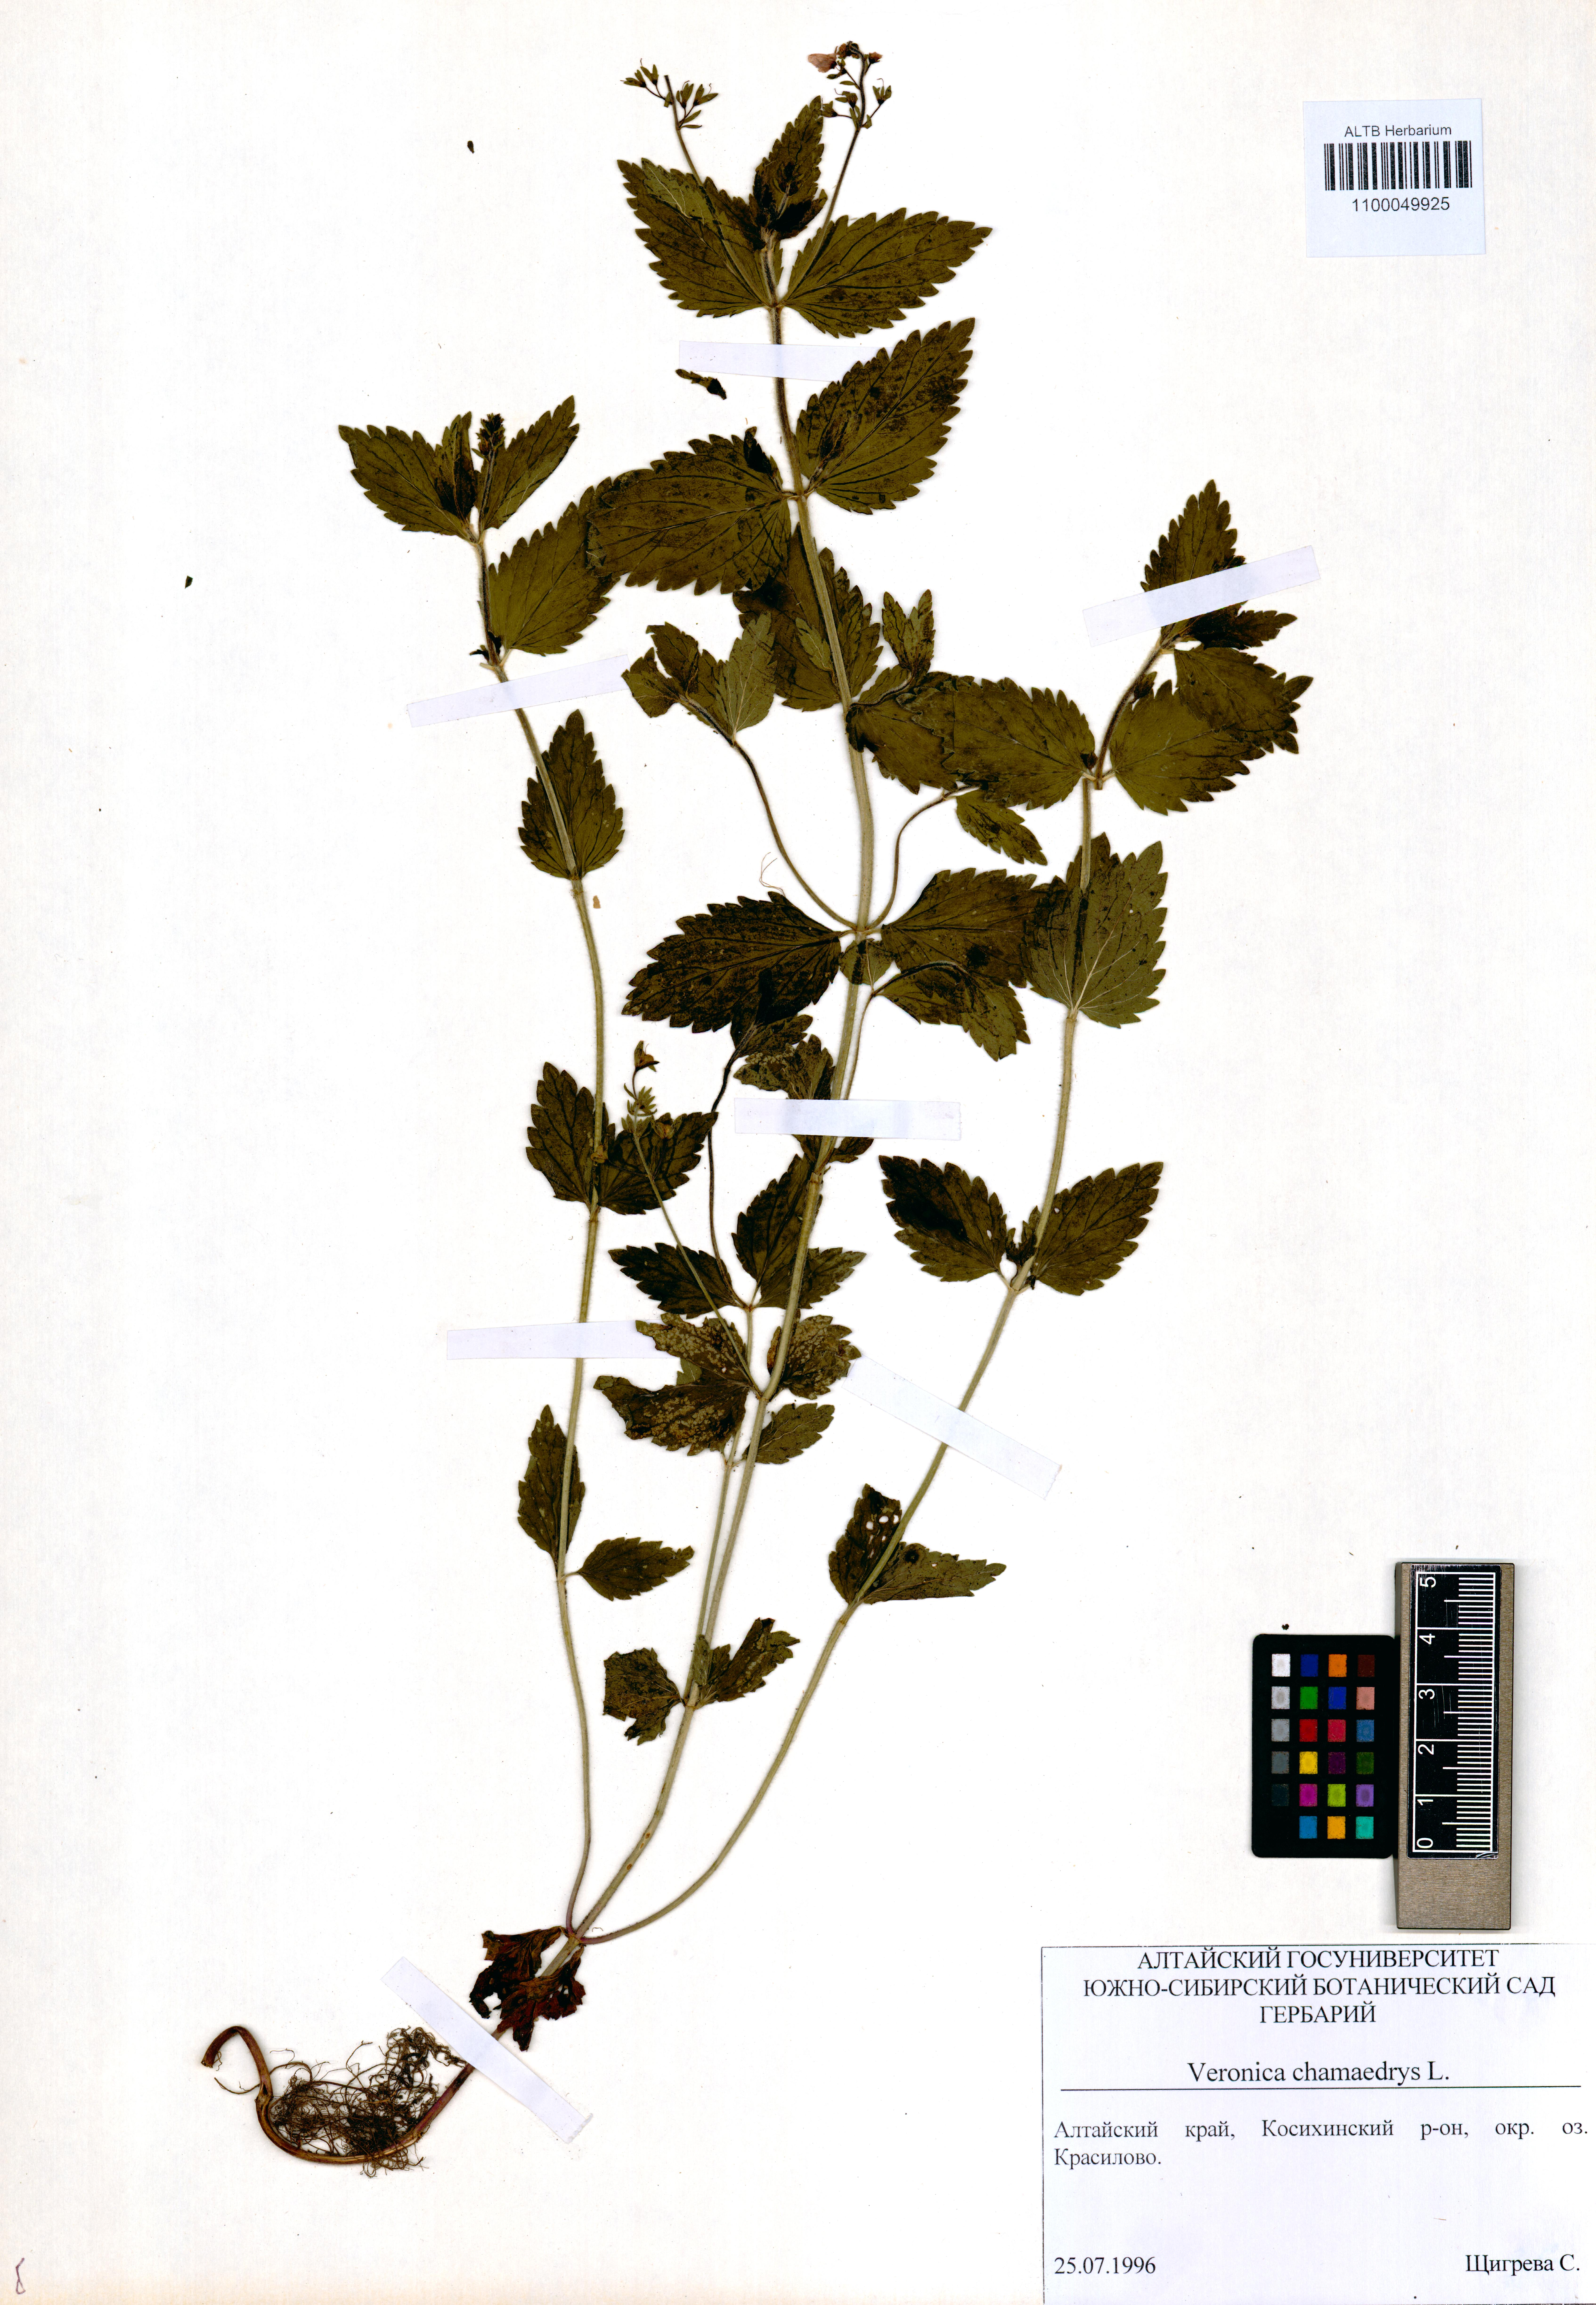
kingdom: Plantae
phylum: Tracheophyta
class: Magnoliopsida
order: Lamiales
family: Plantaginaceae
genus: Veronica
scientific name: Veronica chamaedrys
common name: Germander speedwell
